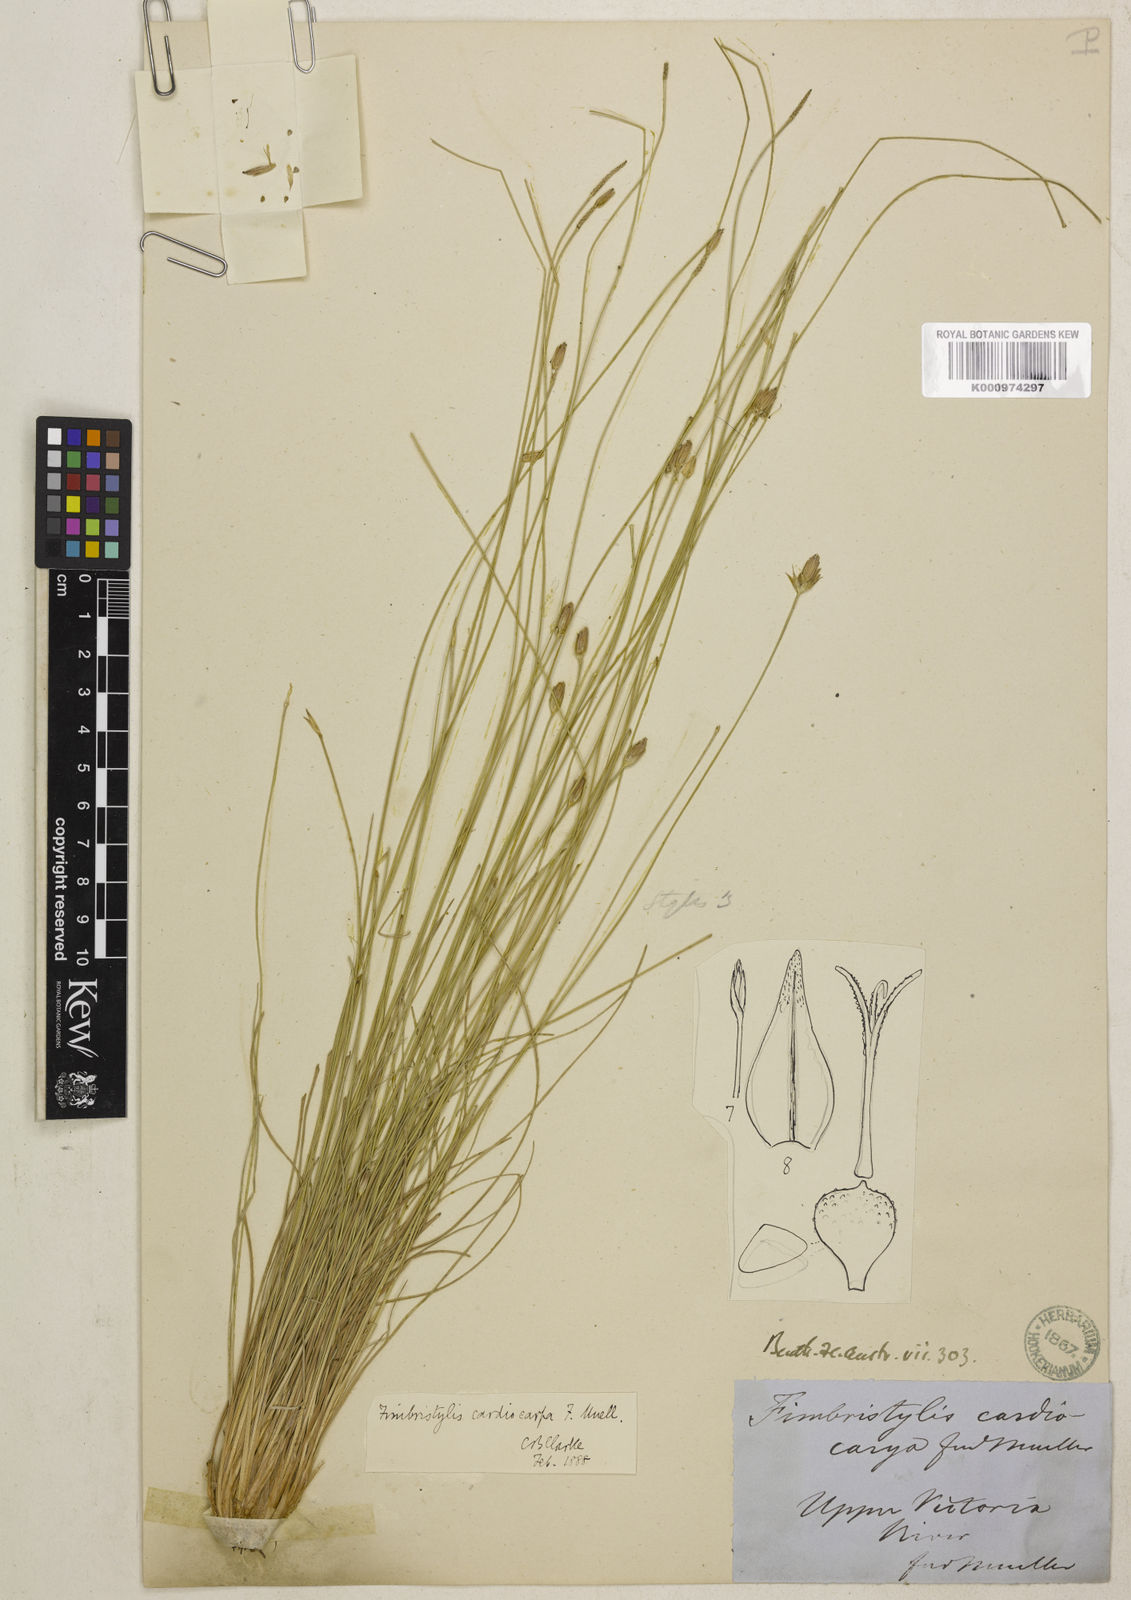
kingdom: Plantae
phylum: Tracheophyta
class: Liliopsida
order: Poales
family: Cyperaceae
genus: Fimbristylis
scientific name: Fimbristylis cardiocarpa
